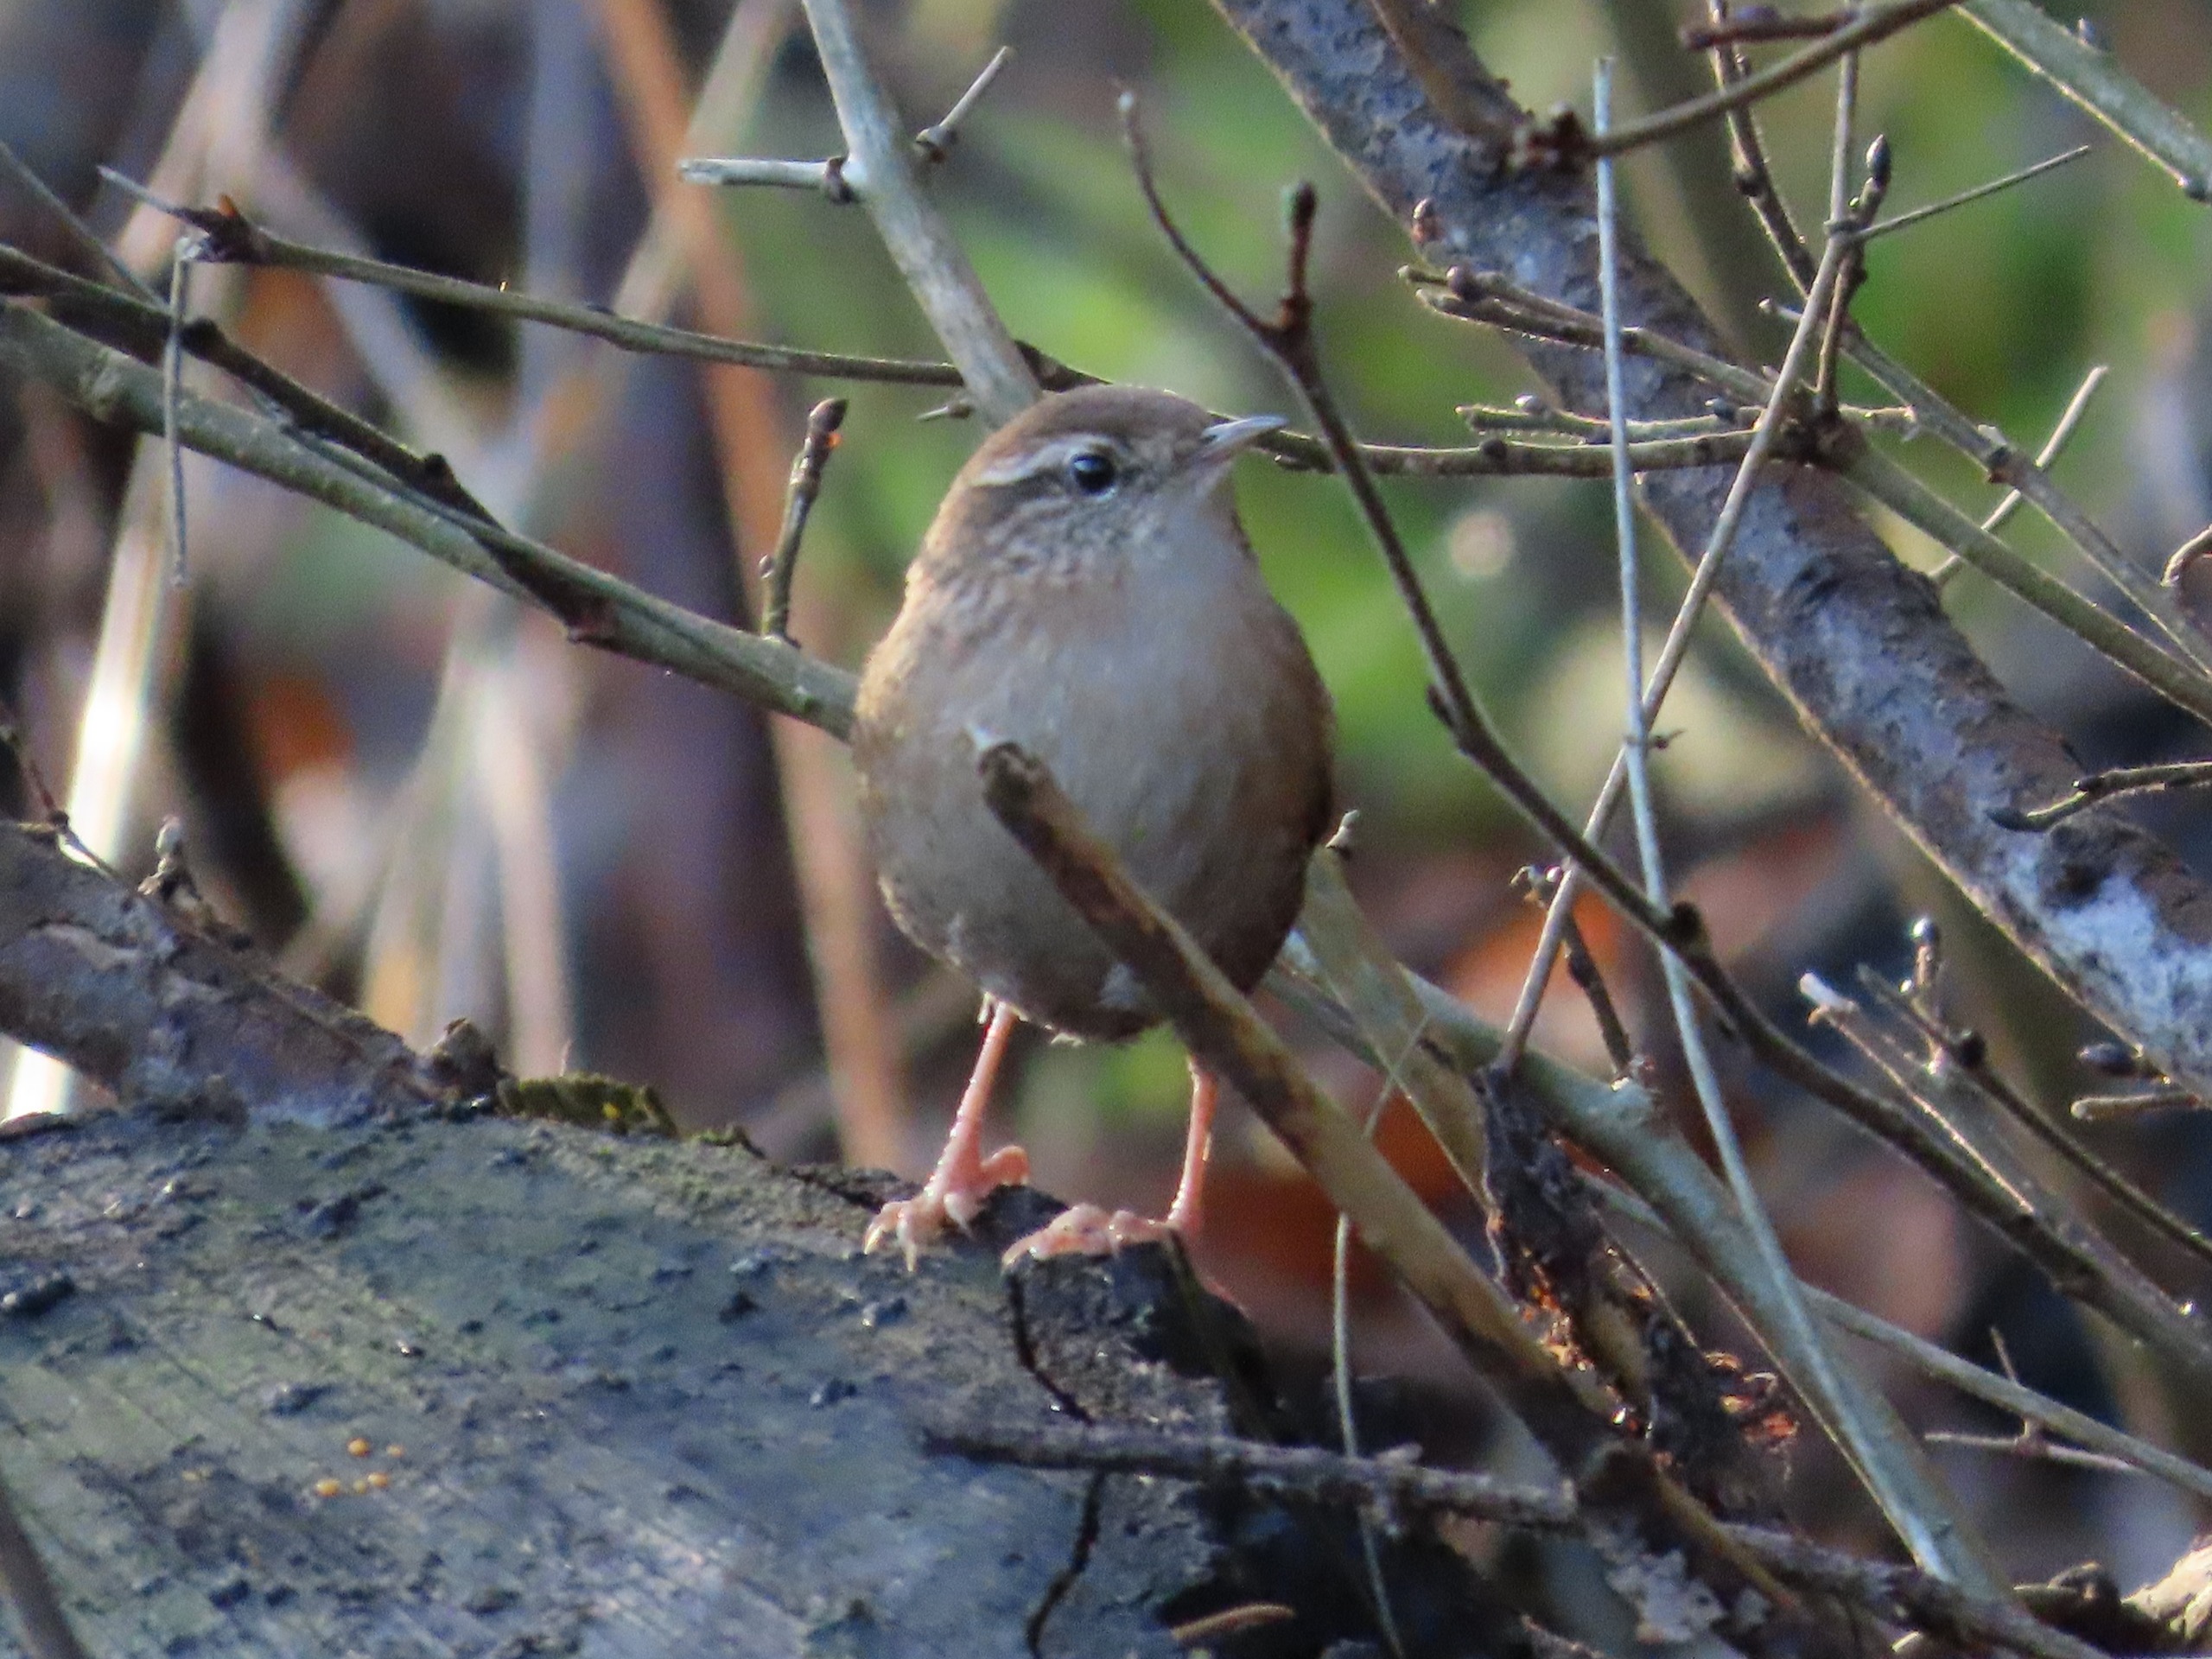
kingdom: Animalia
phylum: Chordata
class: Aves
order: Passeriformes
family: Troglodytidae
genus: Troglodytes
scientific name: Troglodytes troglodytes
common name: Gærdesmutte
